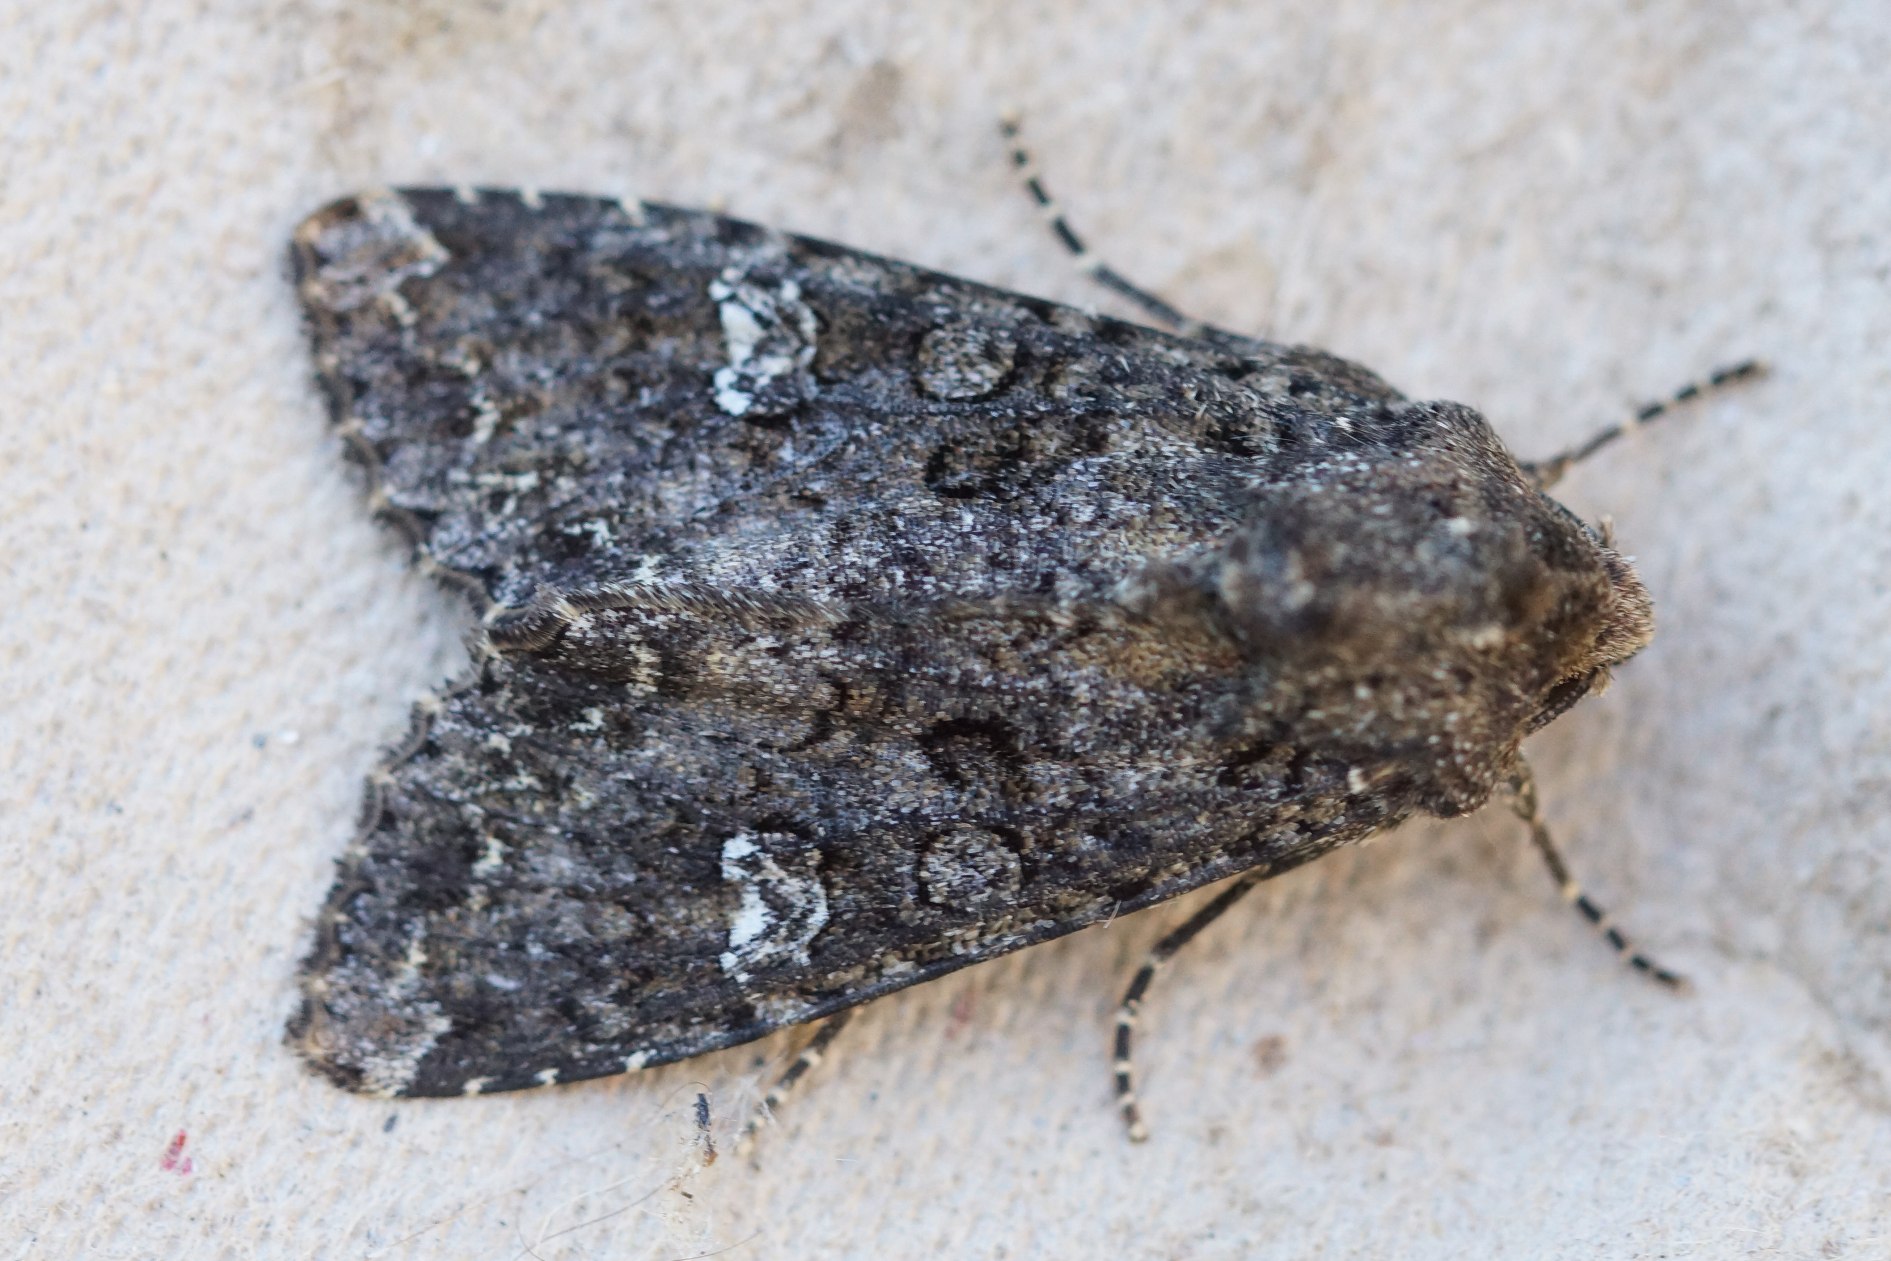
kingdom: Animalia
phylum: Arthropoda
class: Insecta
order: Lepidoptera
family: Noctuidae
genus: Mamestra
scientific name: Mamestra brassicae
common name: Kålugle
